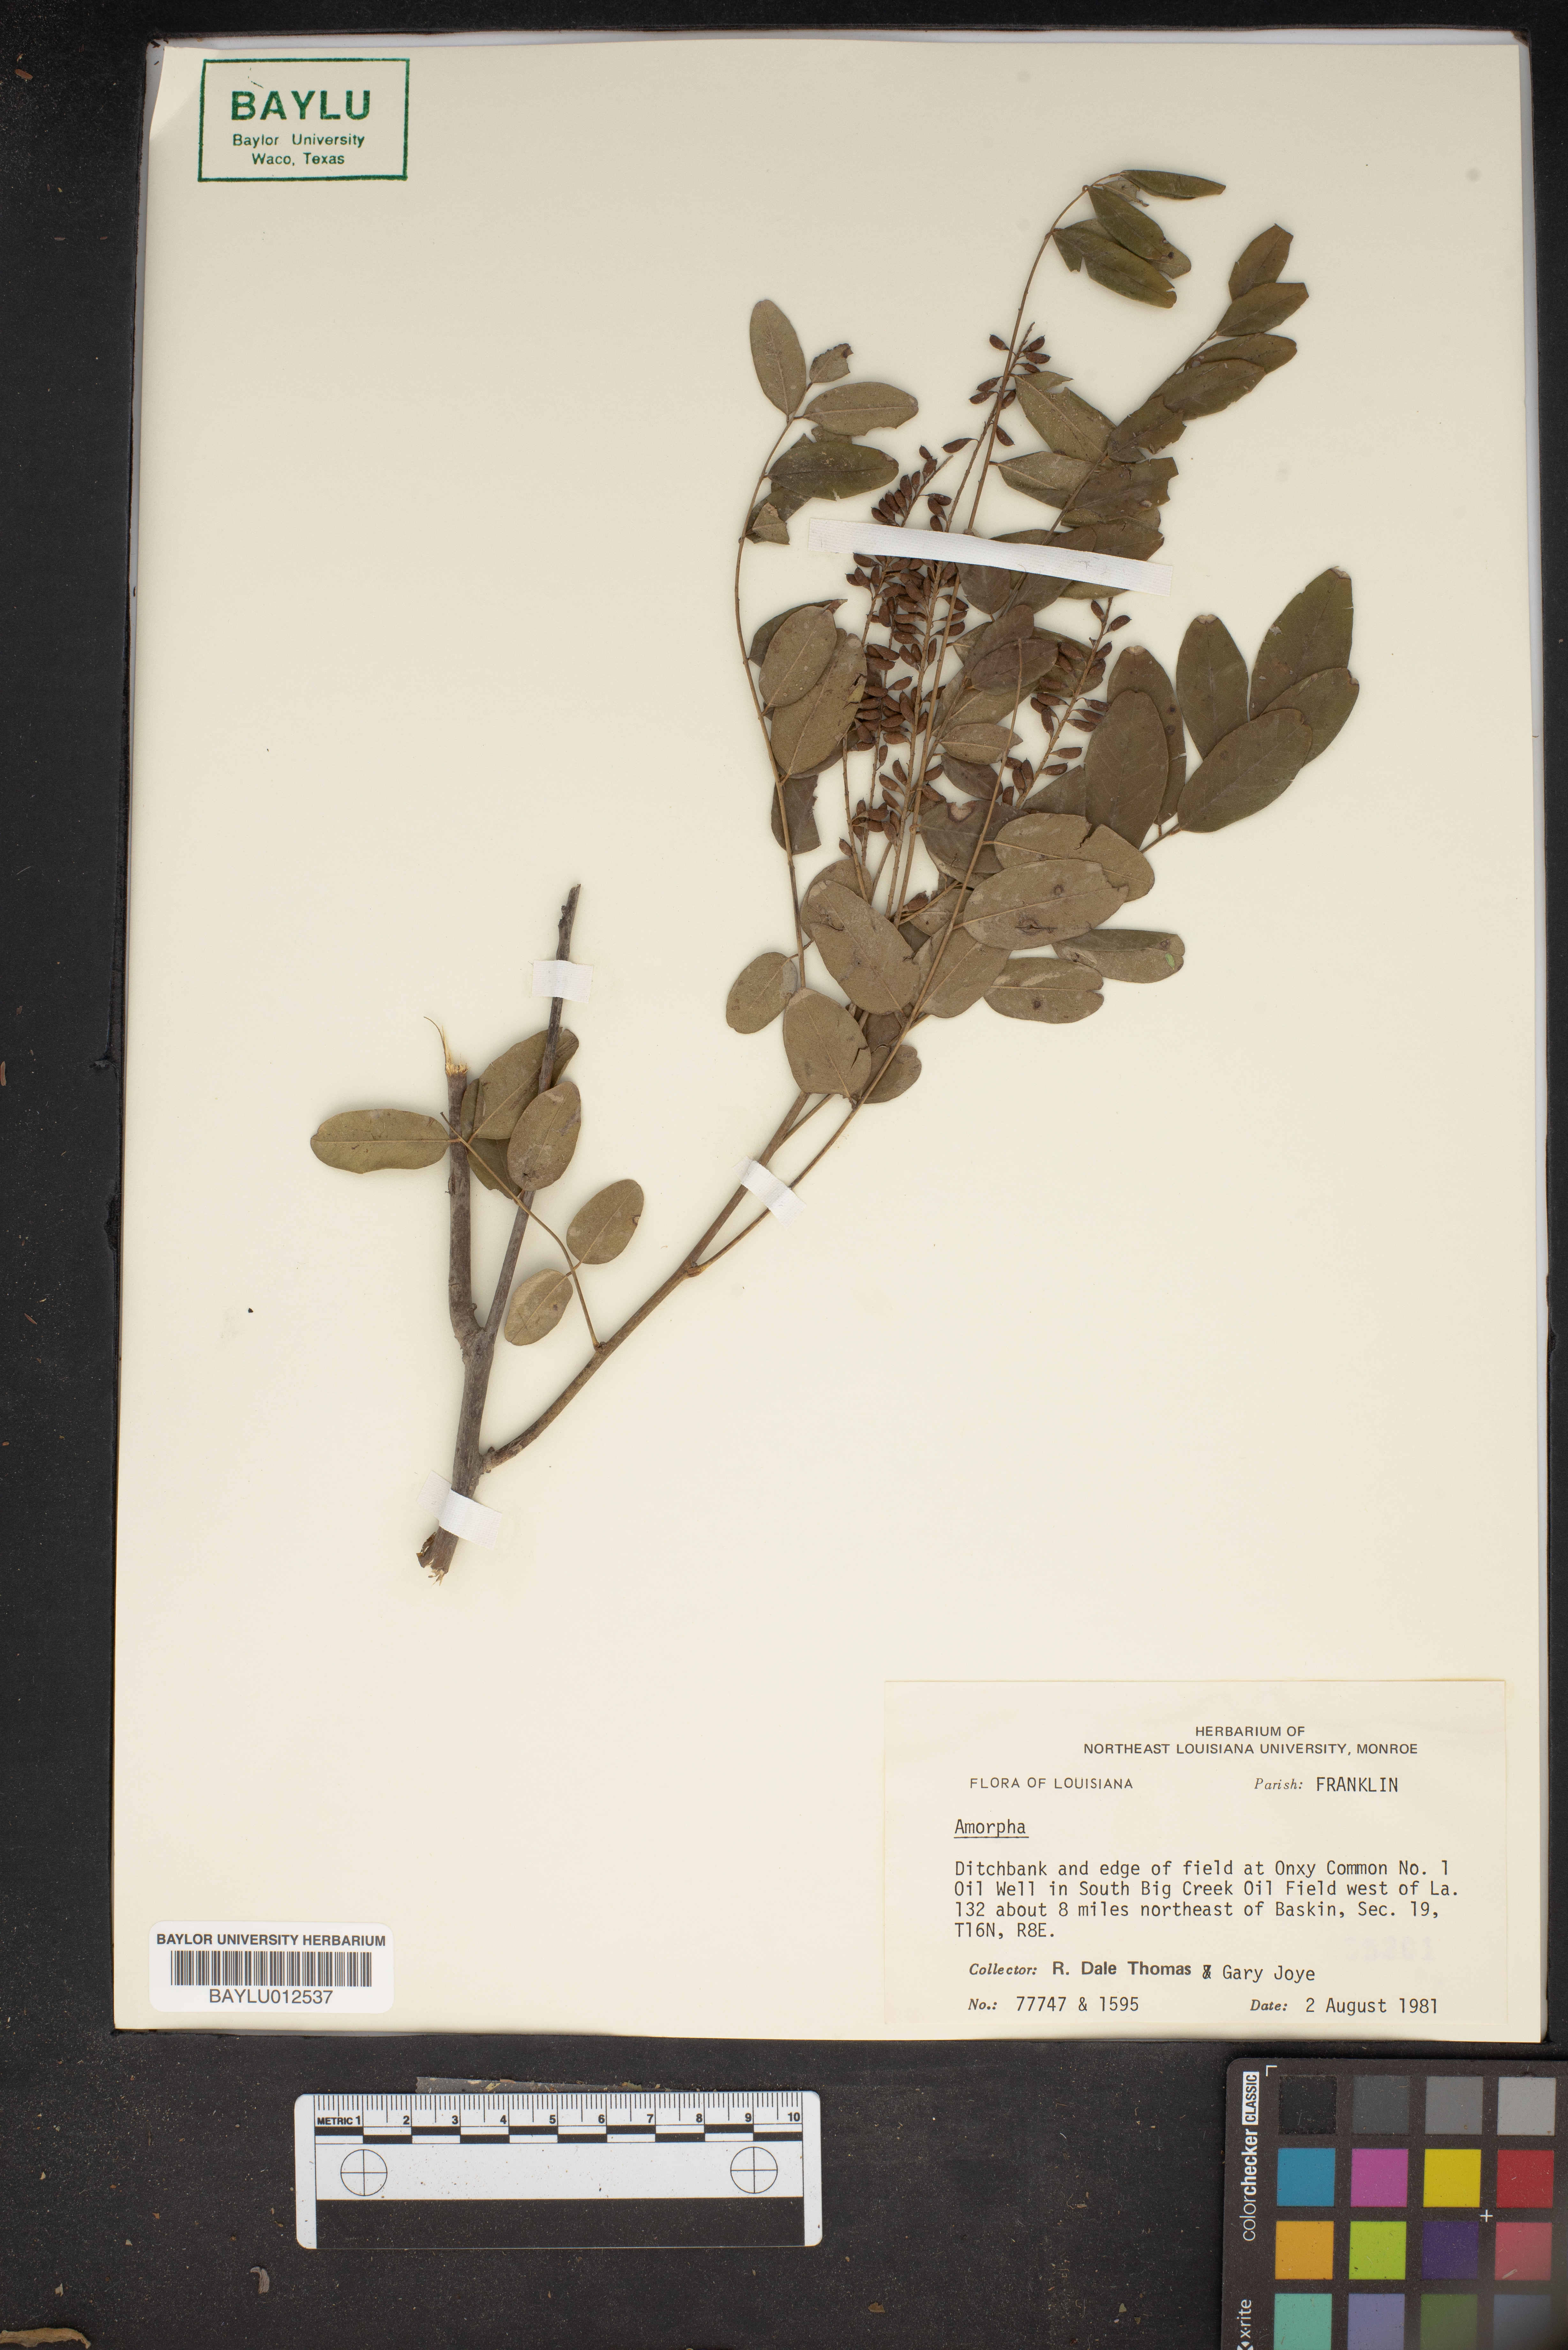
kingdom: Plantae
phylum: Tracheophyta
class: Magnoliopsida
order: Fabales
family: Fabaceae
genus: Amorpha
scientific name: Amorpha
